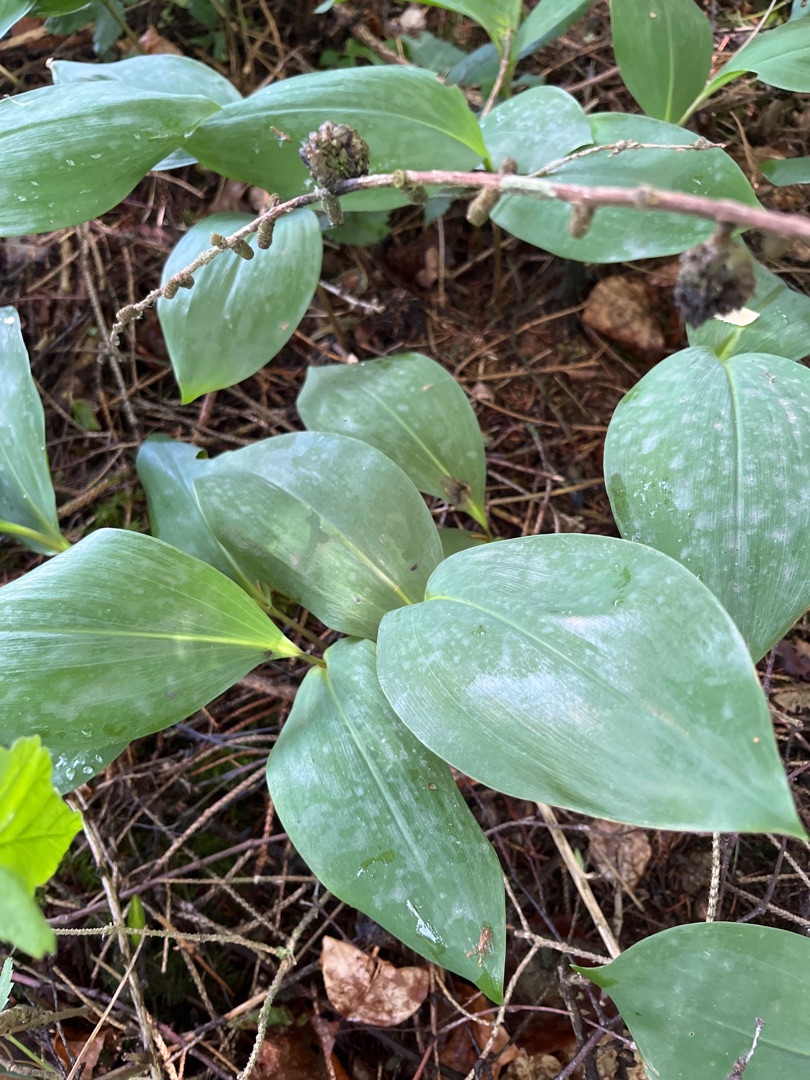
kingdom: Plantae
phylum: Tracheophyta
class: Liliopsida
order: Asparagales
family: Asparagaceae
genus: Convallaria
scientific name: Convallaria majalis
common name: Liljekonval
